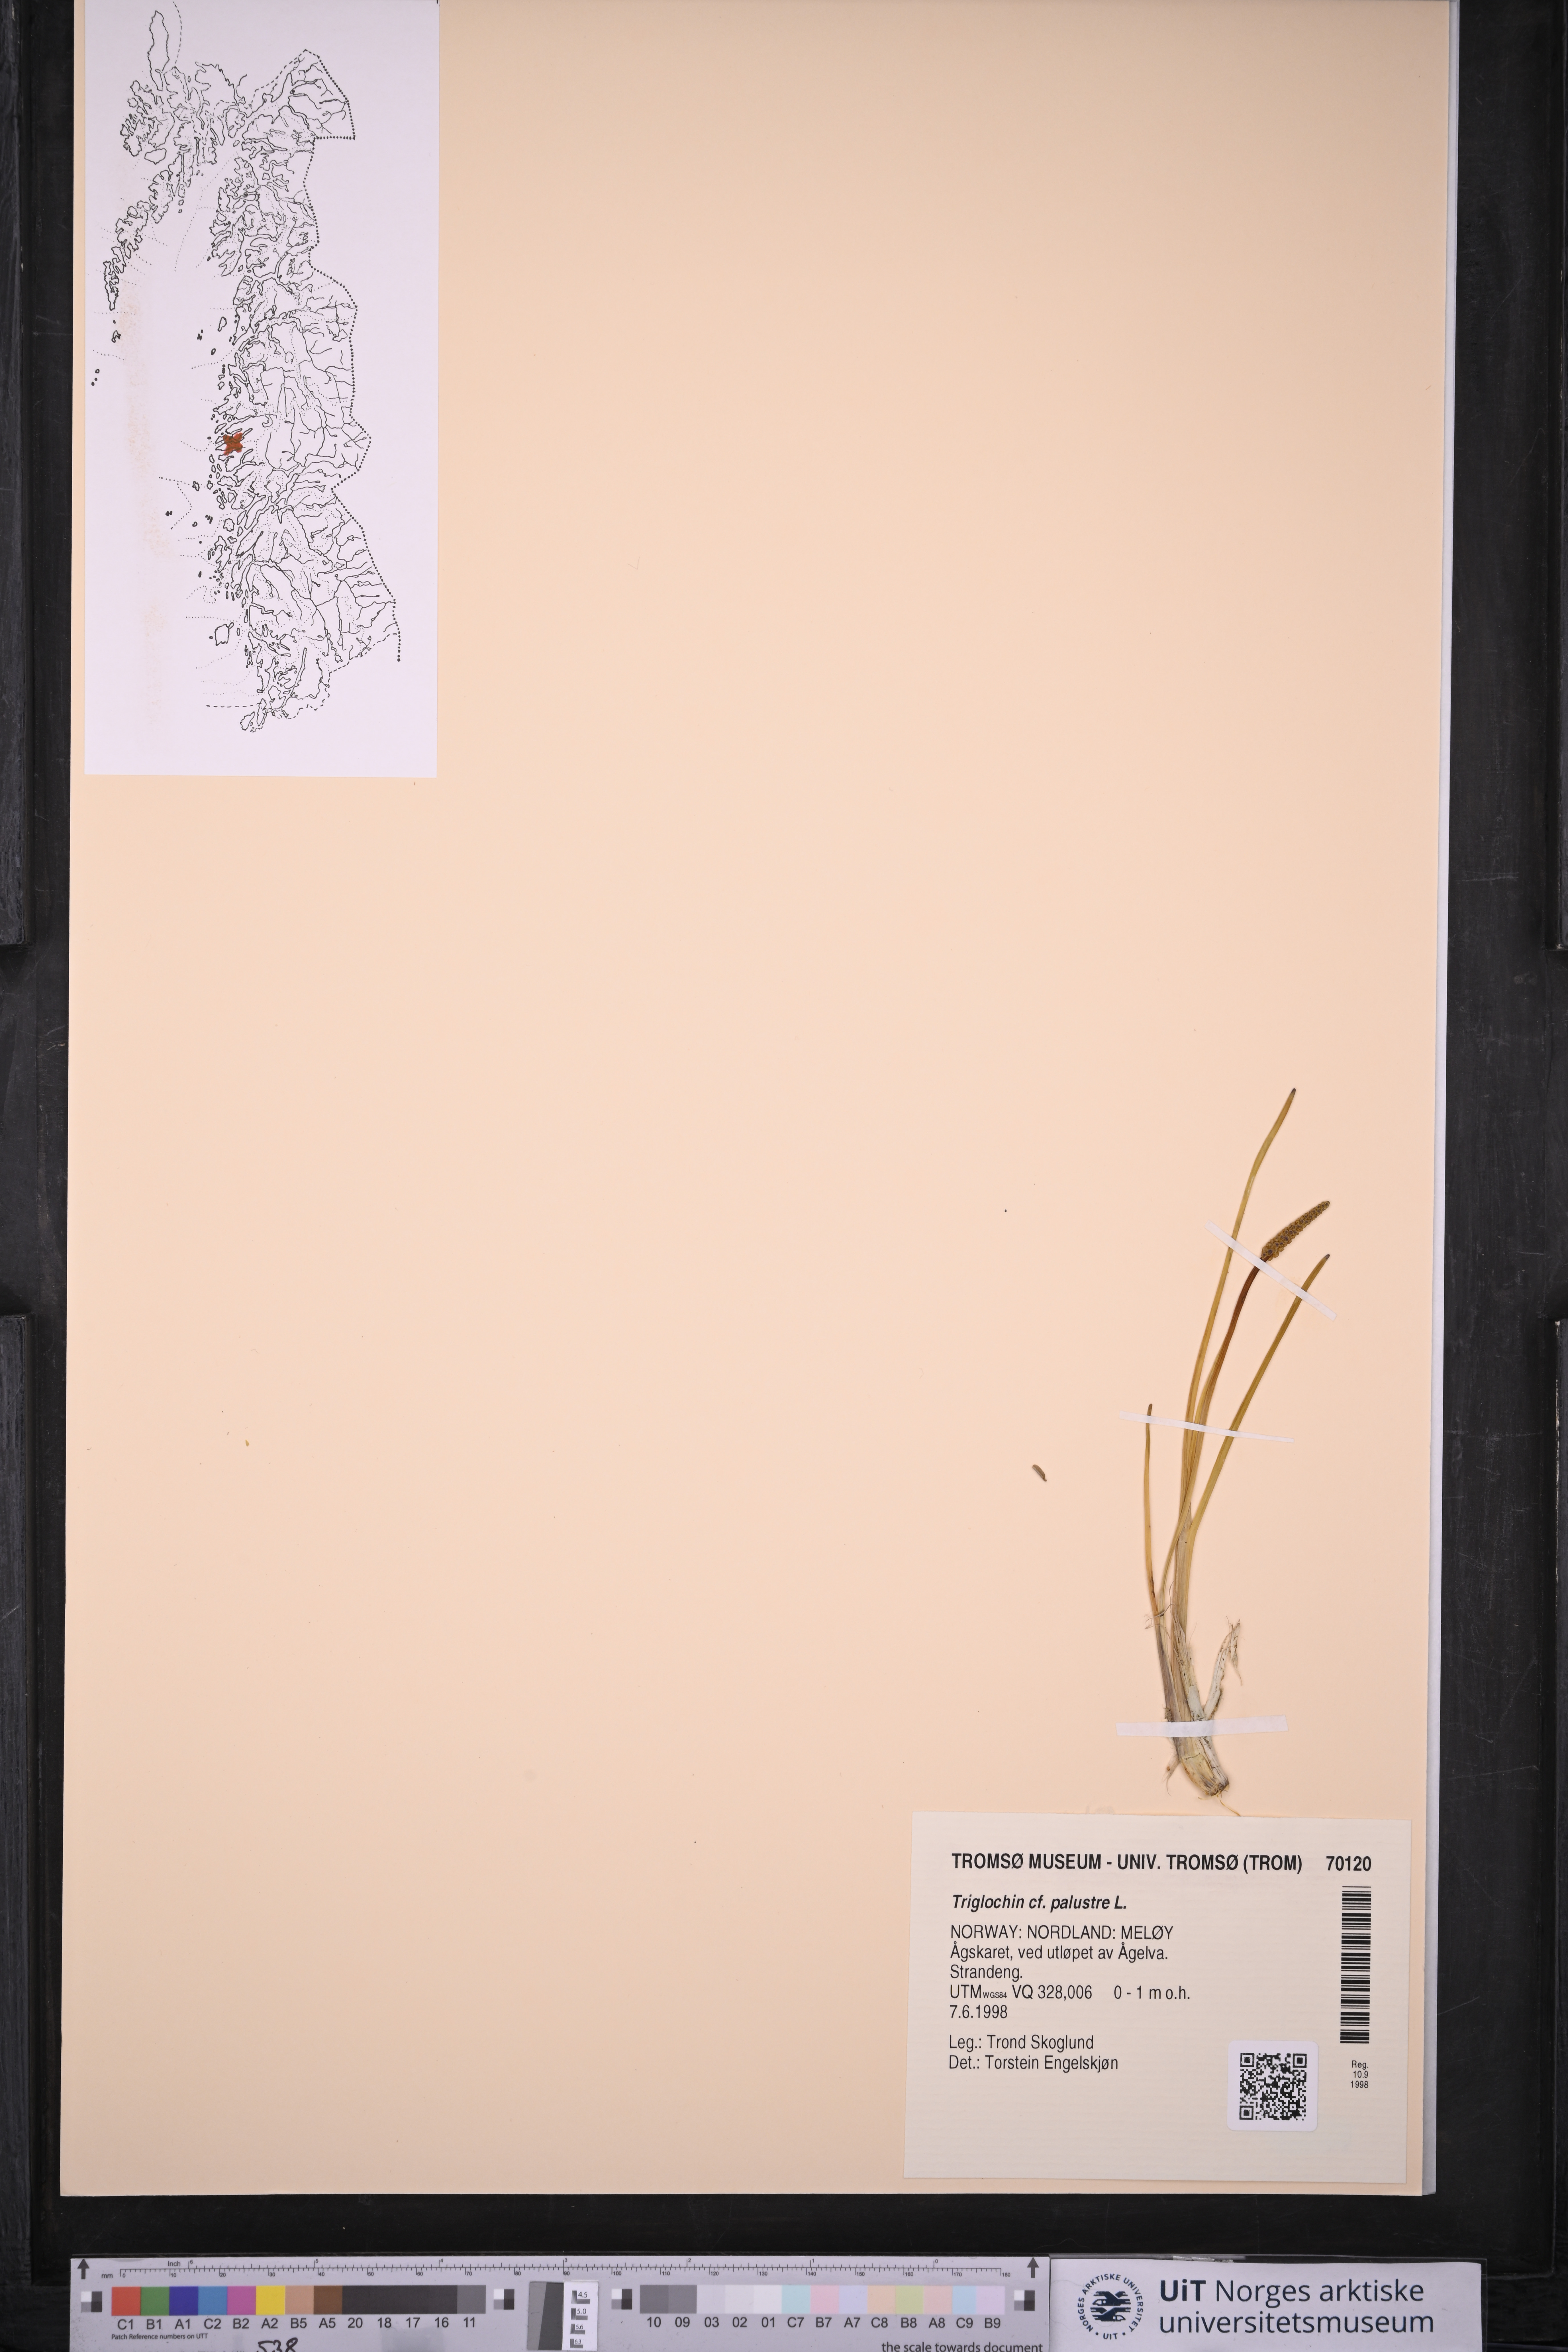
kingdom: Plantae
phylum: Tracheophyta
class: Liliopsida
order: Alismatales
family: Juncaginaceae
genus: Triglochin
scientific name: Triglochin palustris
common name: Marsh arrowgrass
